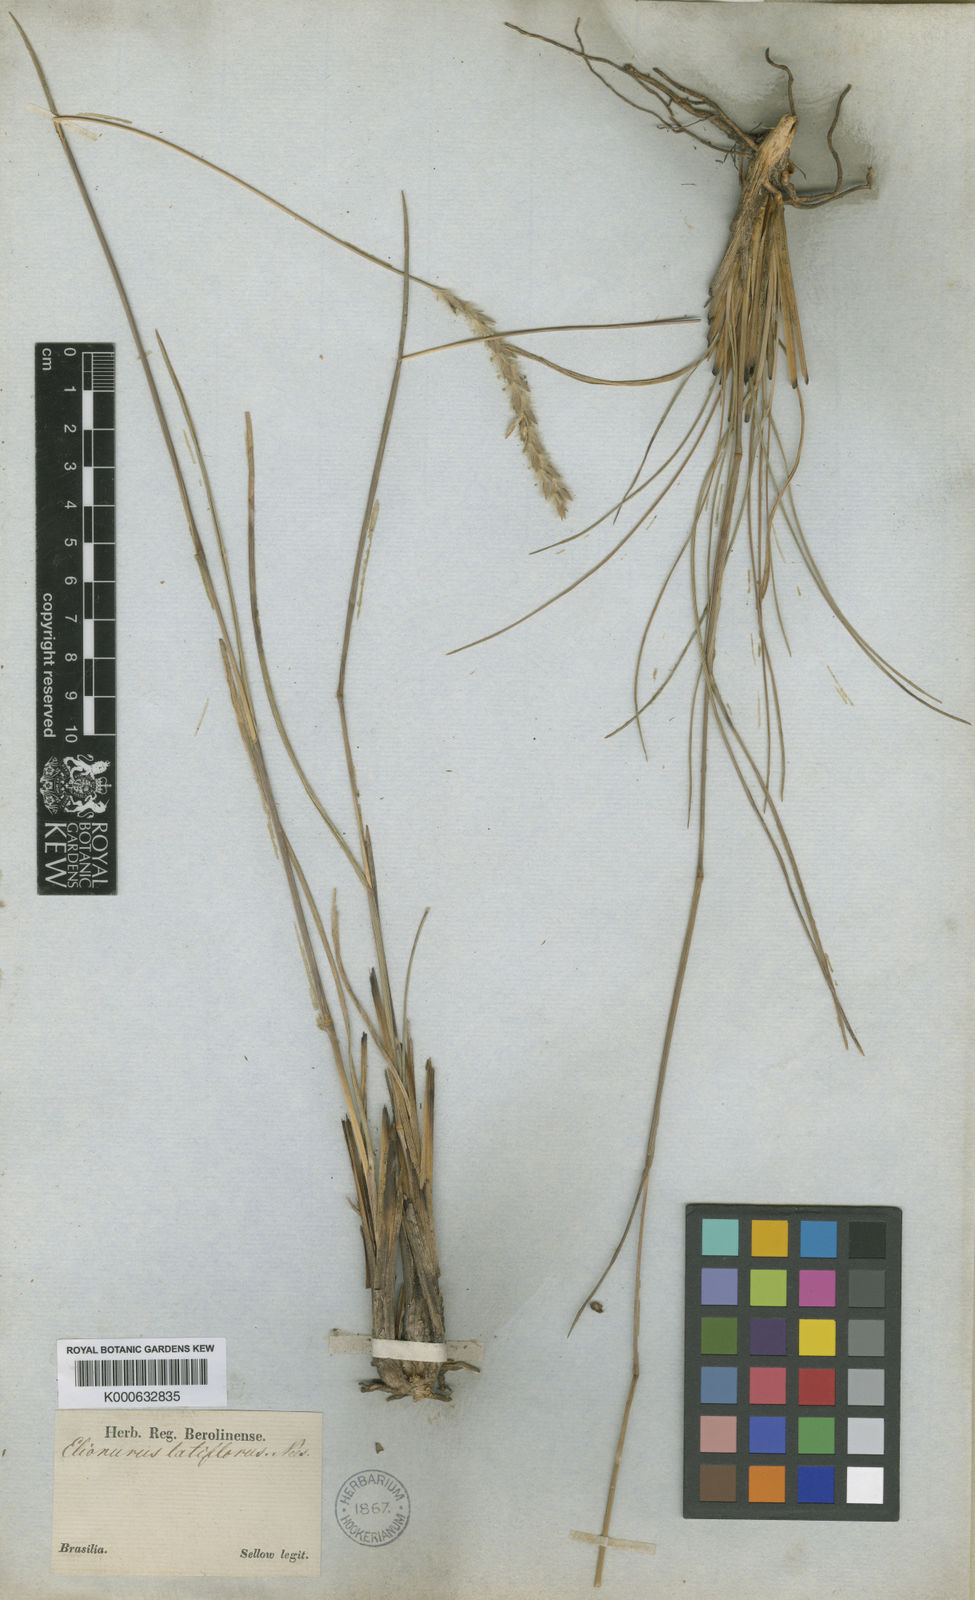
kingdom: Plantae
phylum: Tracheophyta
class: Liliopsida
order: Poales
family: Poaceae
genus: Elionurus
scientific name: Elionurus muticus
